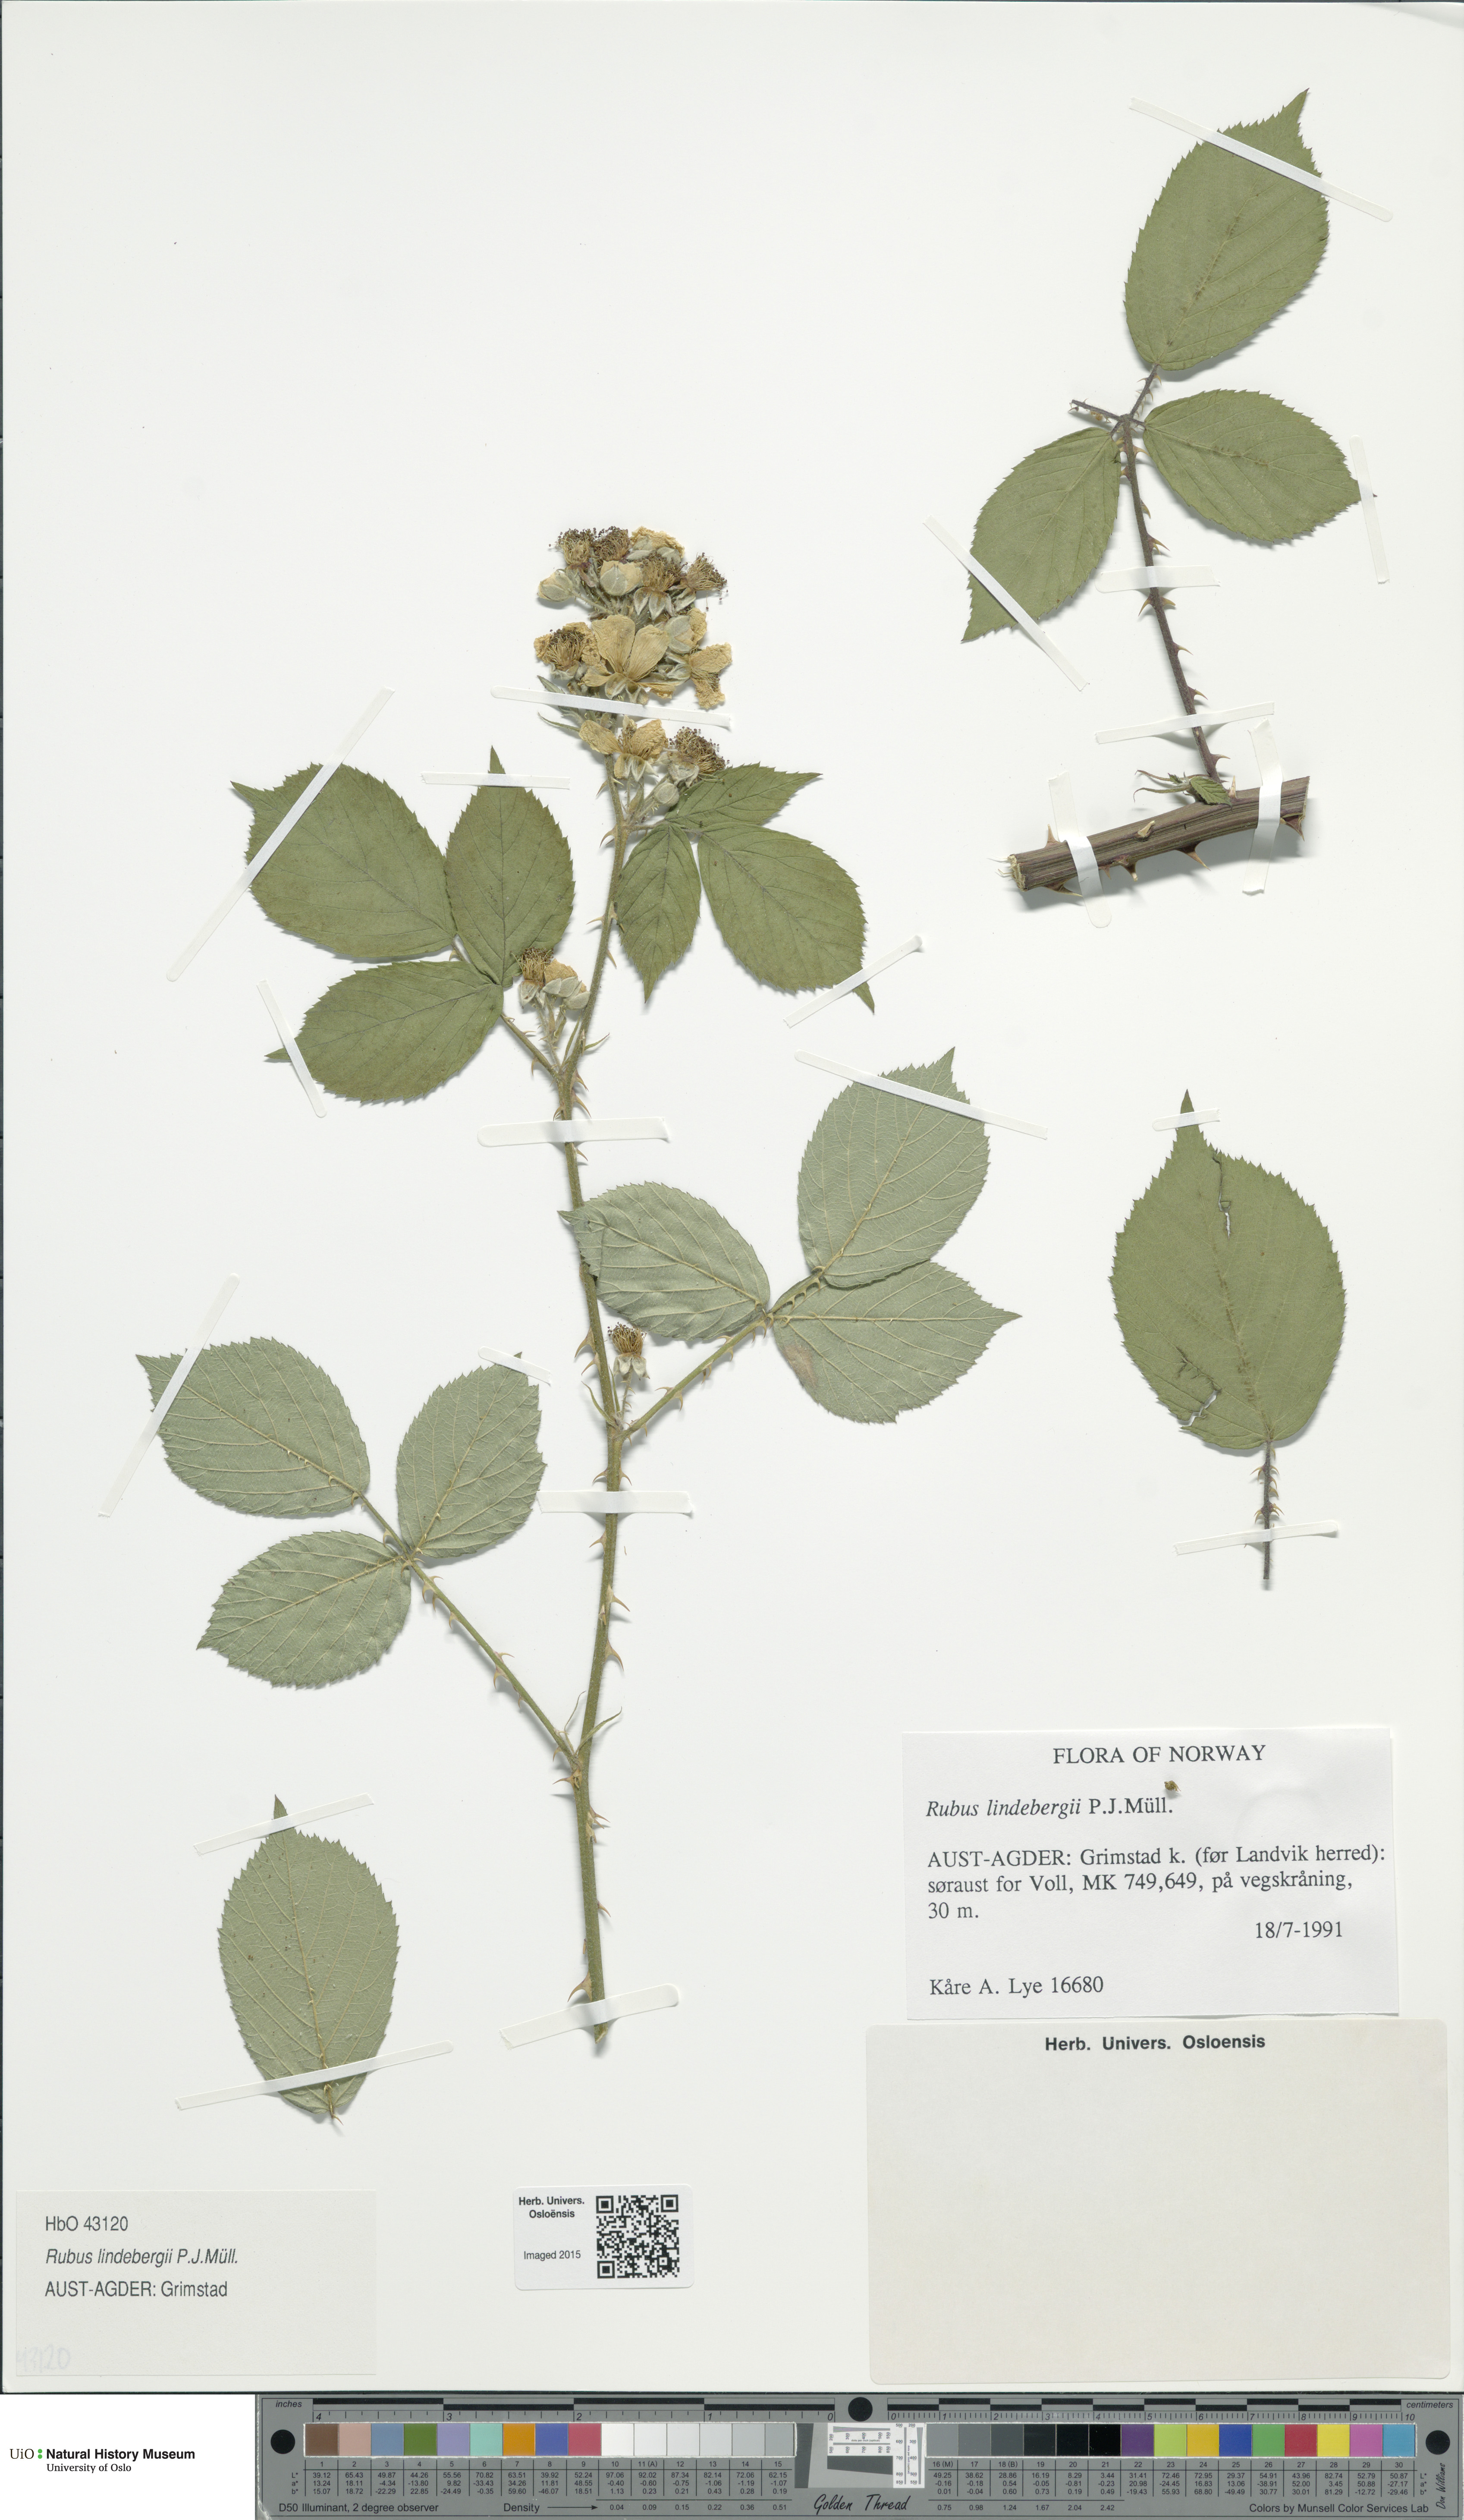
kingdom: Plantae
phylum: Tracheophyta
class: Magnoliopsida
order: Rosales
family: Rosaceae
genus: Rubus
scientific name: Rubus lindebergii
